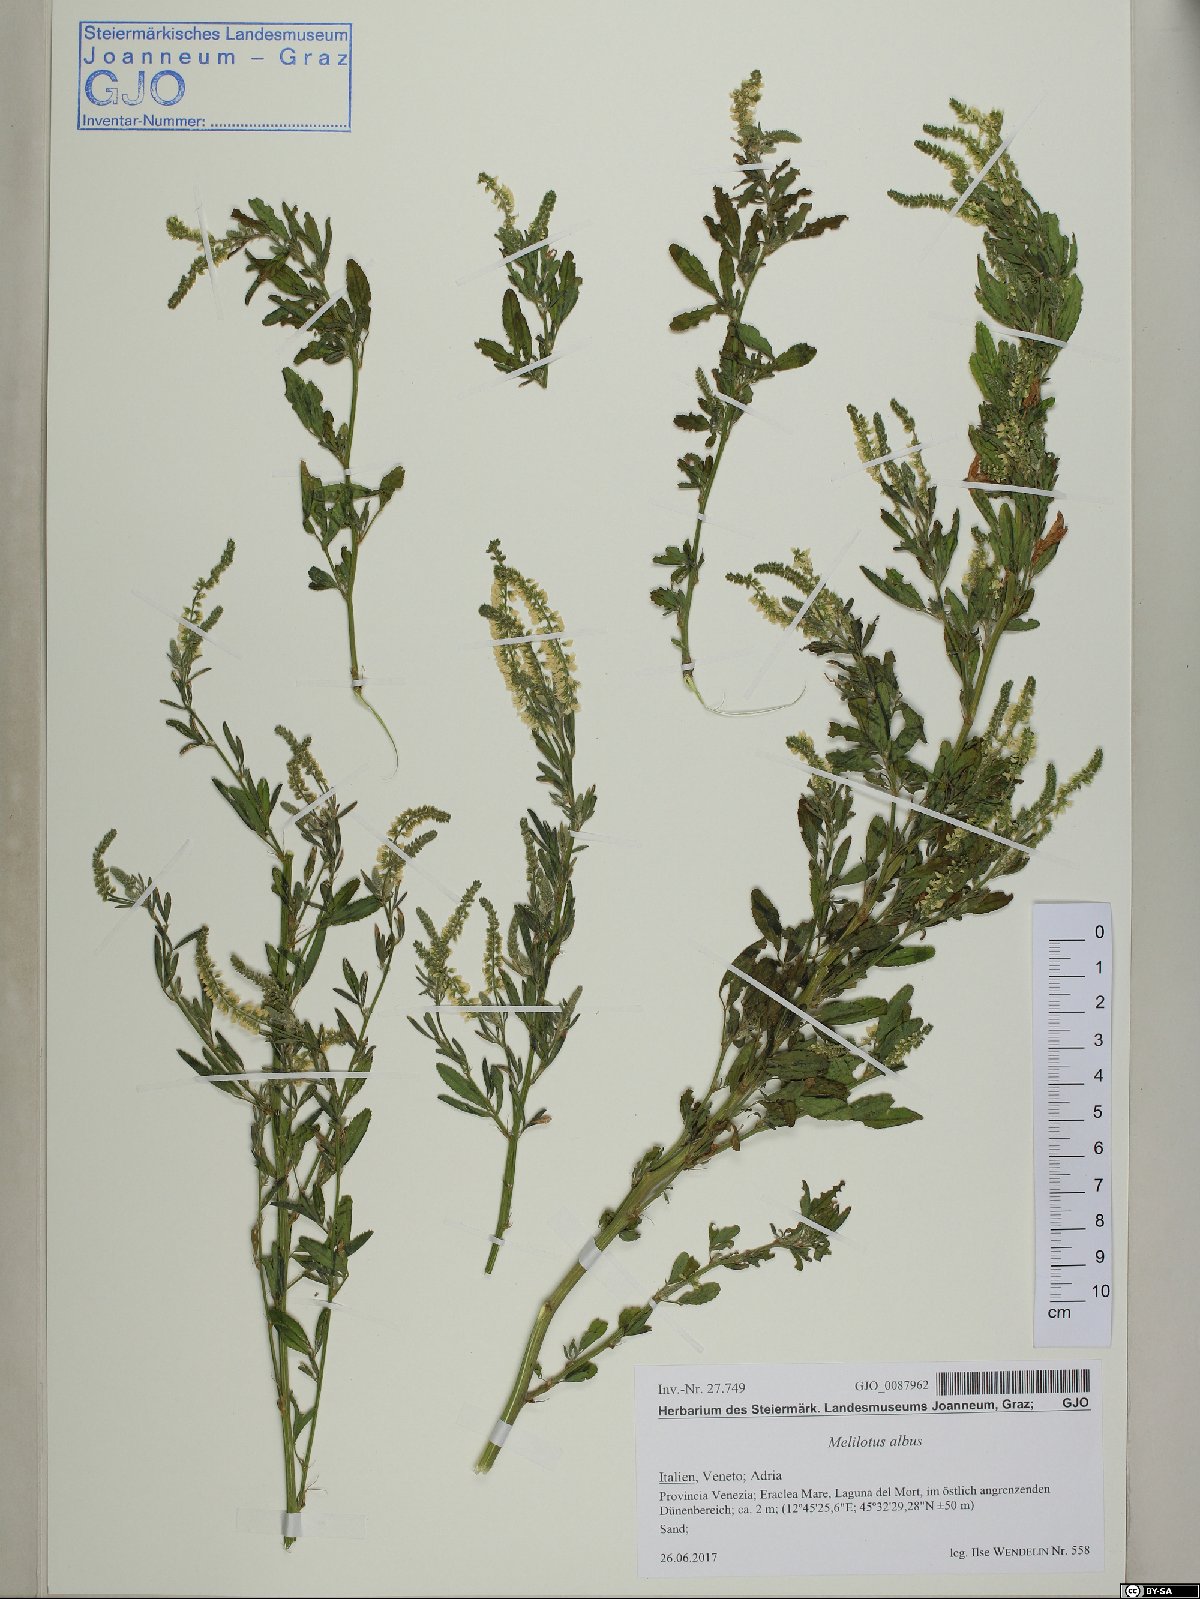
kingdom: Plantae
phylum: Tracheophyta
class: Magnoliopsida
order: Fabales
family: Fabaceae
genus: Melilotus
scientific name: Melilotus albus
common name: White melilot
